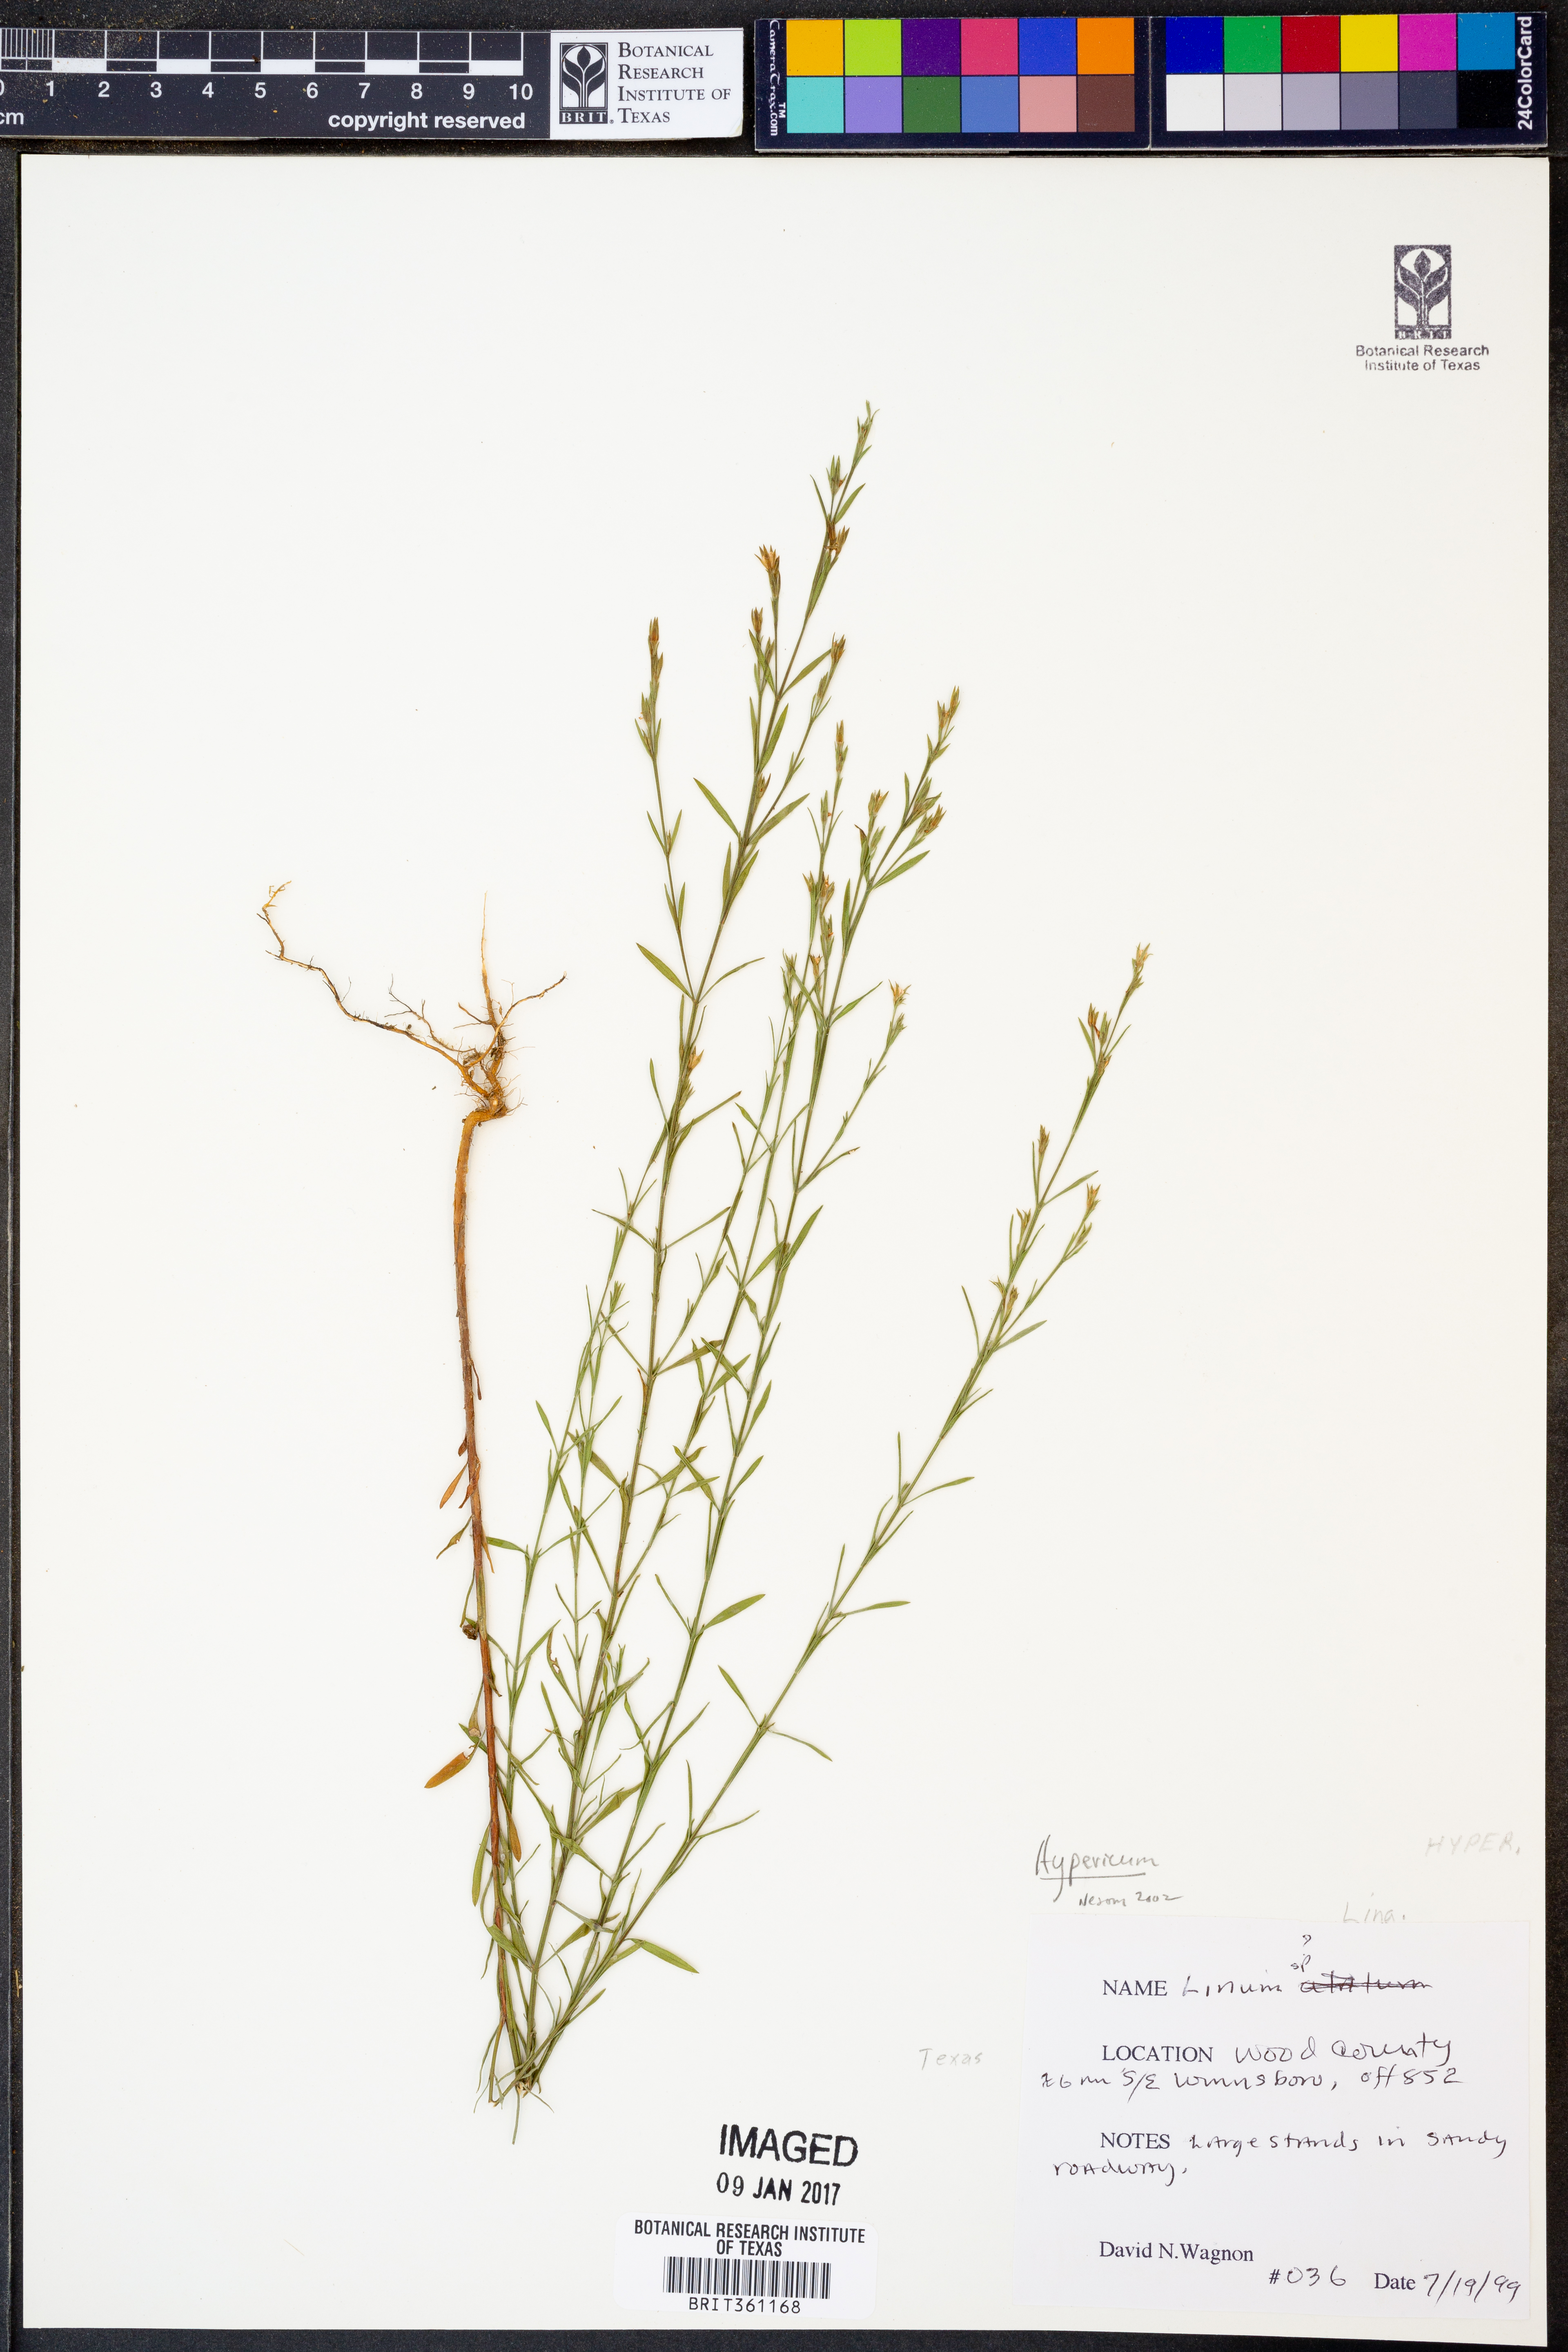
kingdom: Plantae
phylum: Tracheophyta
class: Magnoliopsida
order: Malpighiales
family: Linaceae
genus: Linum
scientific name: Linum
